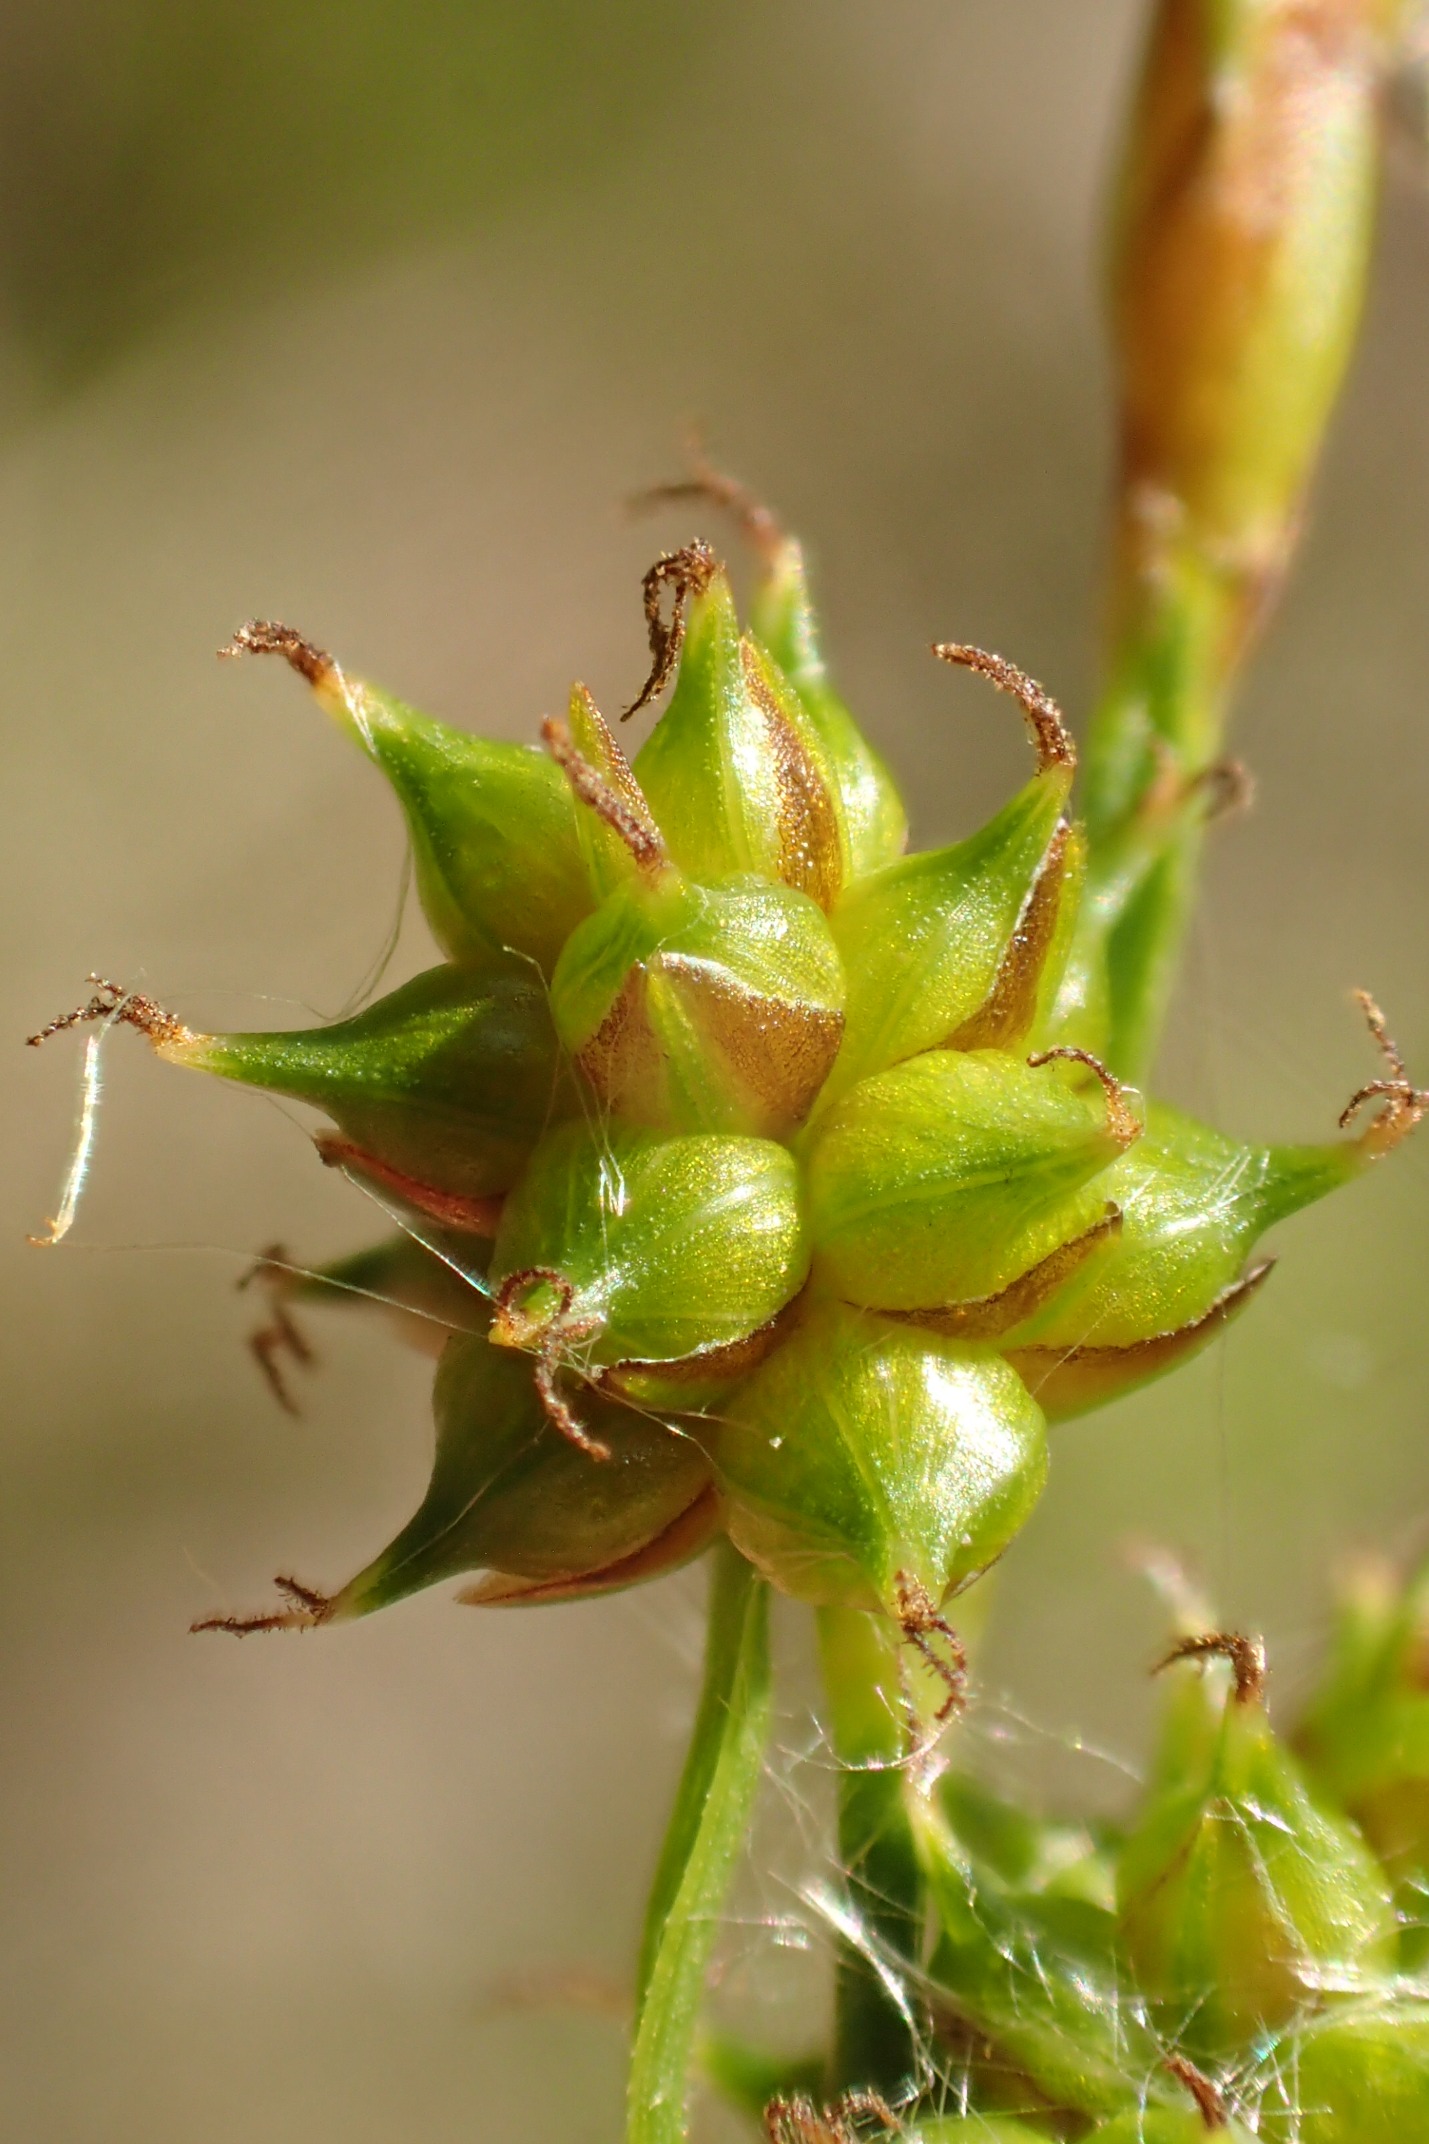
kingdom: Plantae
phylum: Tracheophyta
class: Liliopsida
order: Poales
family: Cyperaceae
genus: Carex
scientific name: Carex oederi
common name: Dværg-star
